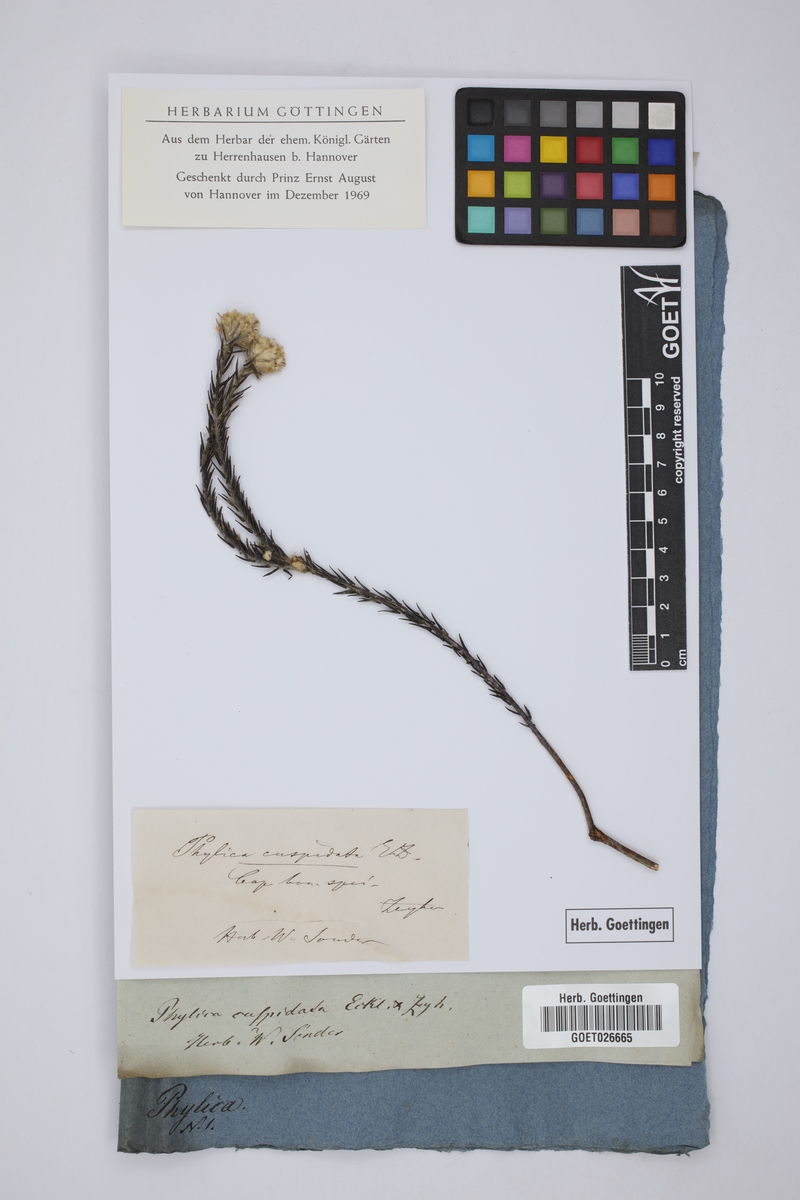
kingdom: Plantae
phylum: Tracheophyta
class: Magnoliopsida
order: Rosales
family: Rhamnaceae
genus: Phylica
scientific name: Phylica cuspidata
